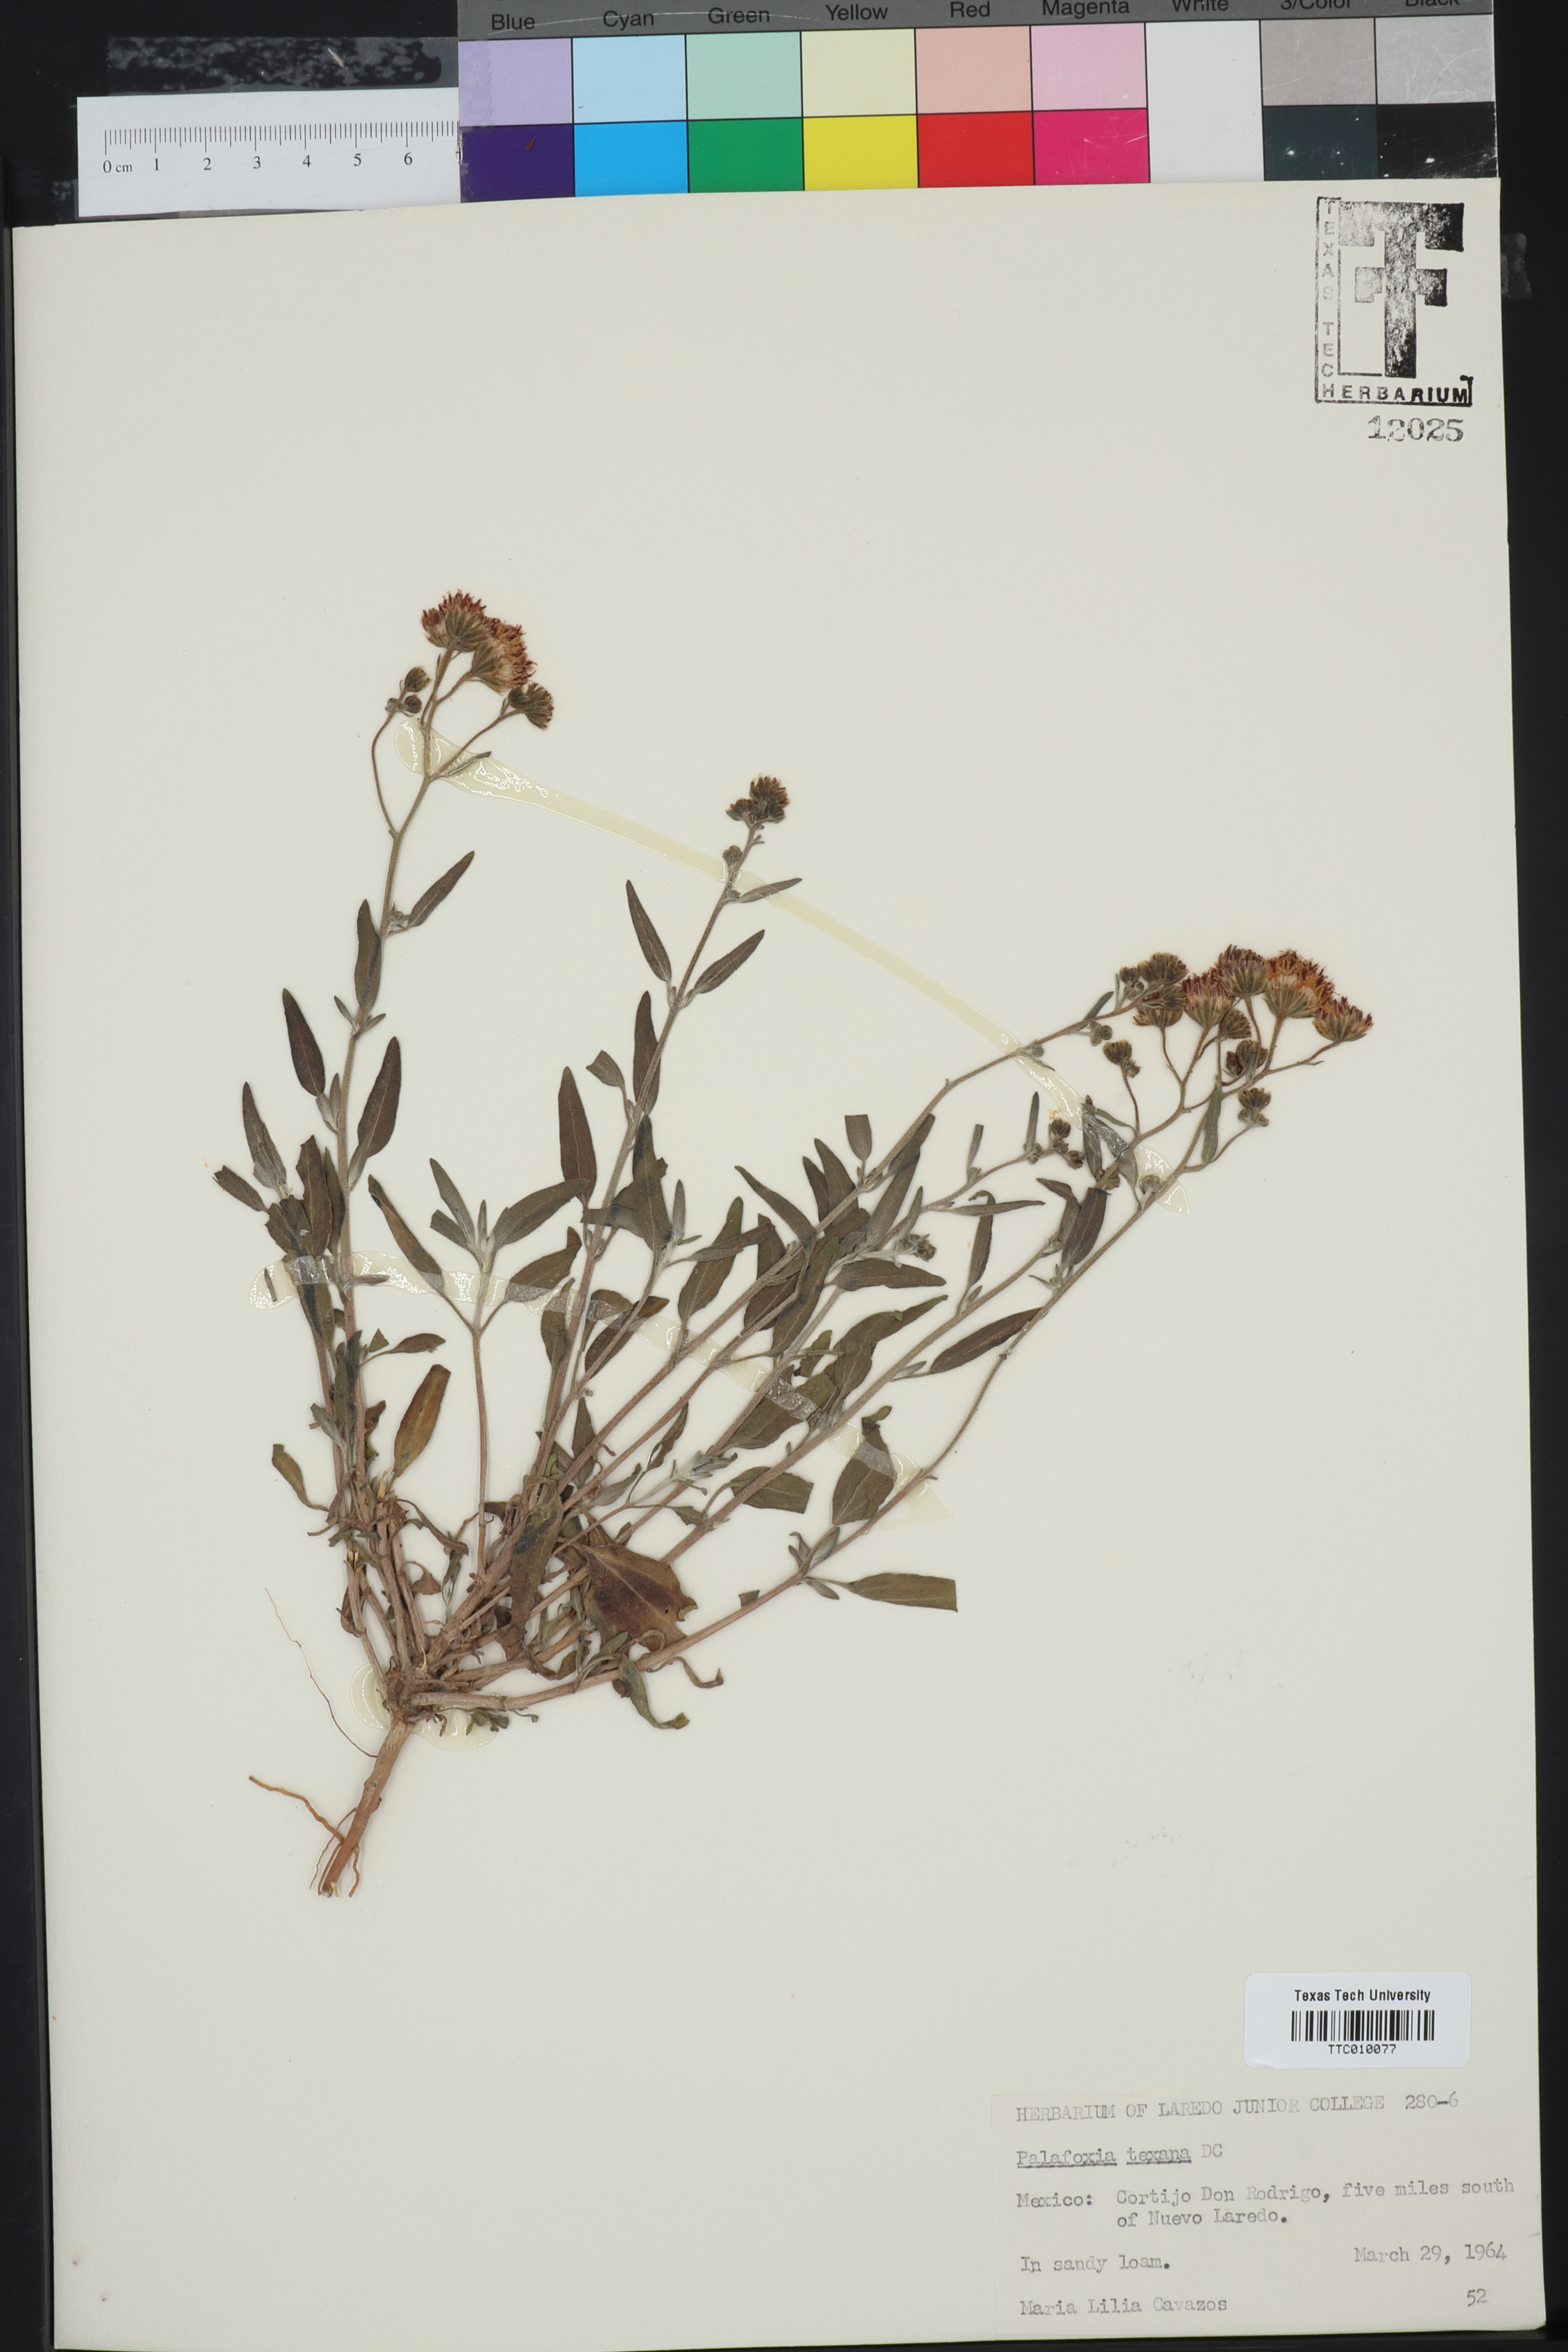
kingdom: Plantae
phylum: Tracheophyta
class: Magnoliopsida
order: Asterales
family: Asteraceae
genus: Palafoxia
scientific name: Palafoxia texana
